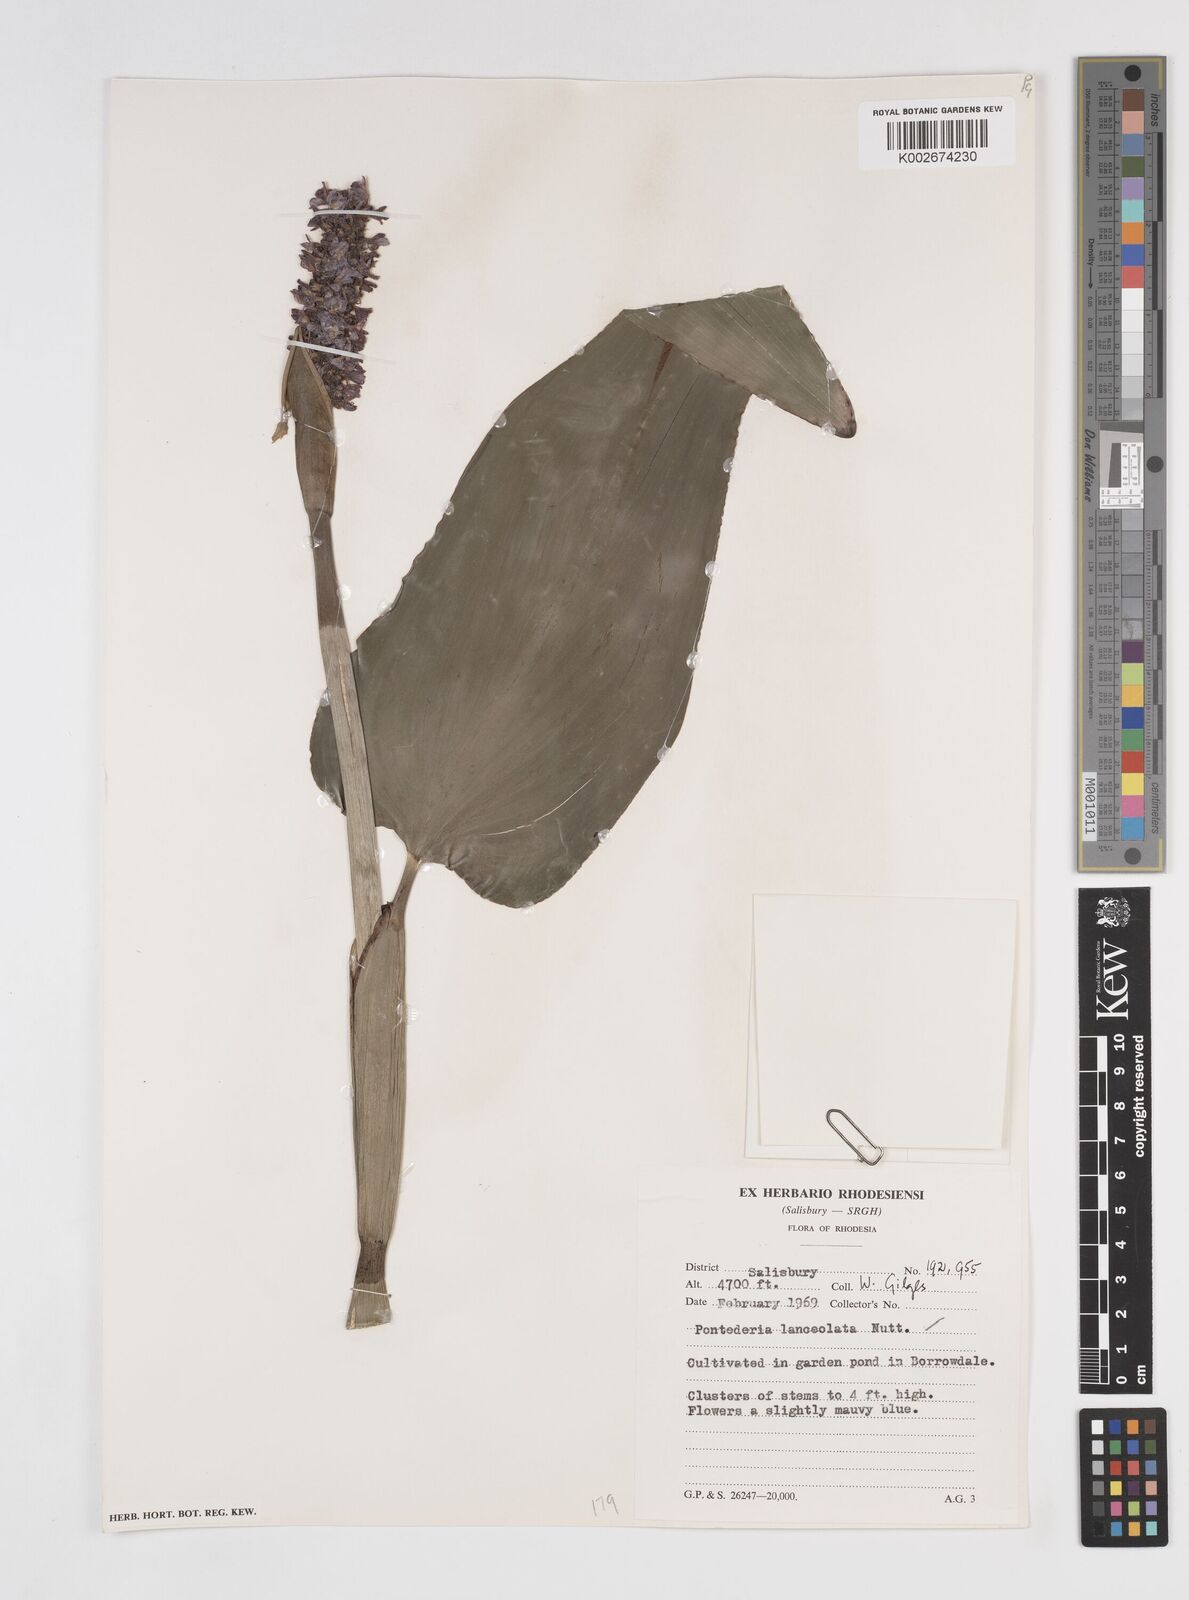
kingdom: Plantae
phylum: Tracheophyta
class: Liliopsida
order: Commelinales
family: Pontederiaceae
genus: Pontederia
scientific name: Pontederia
